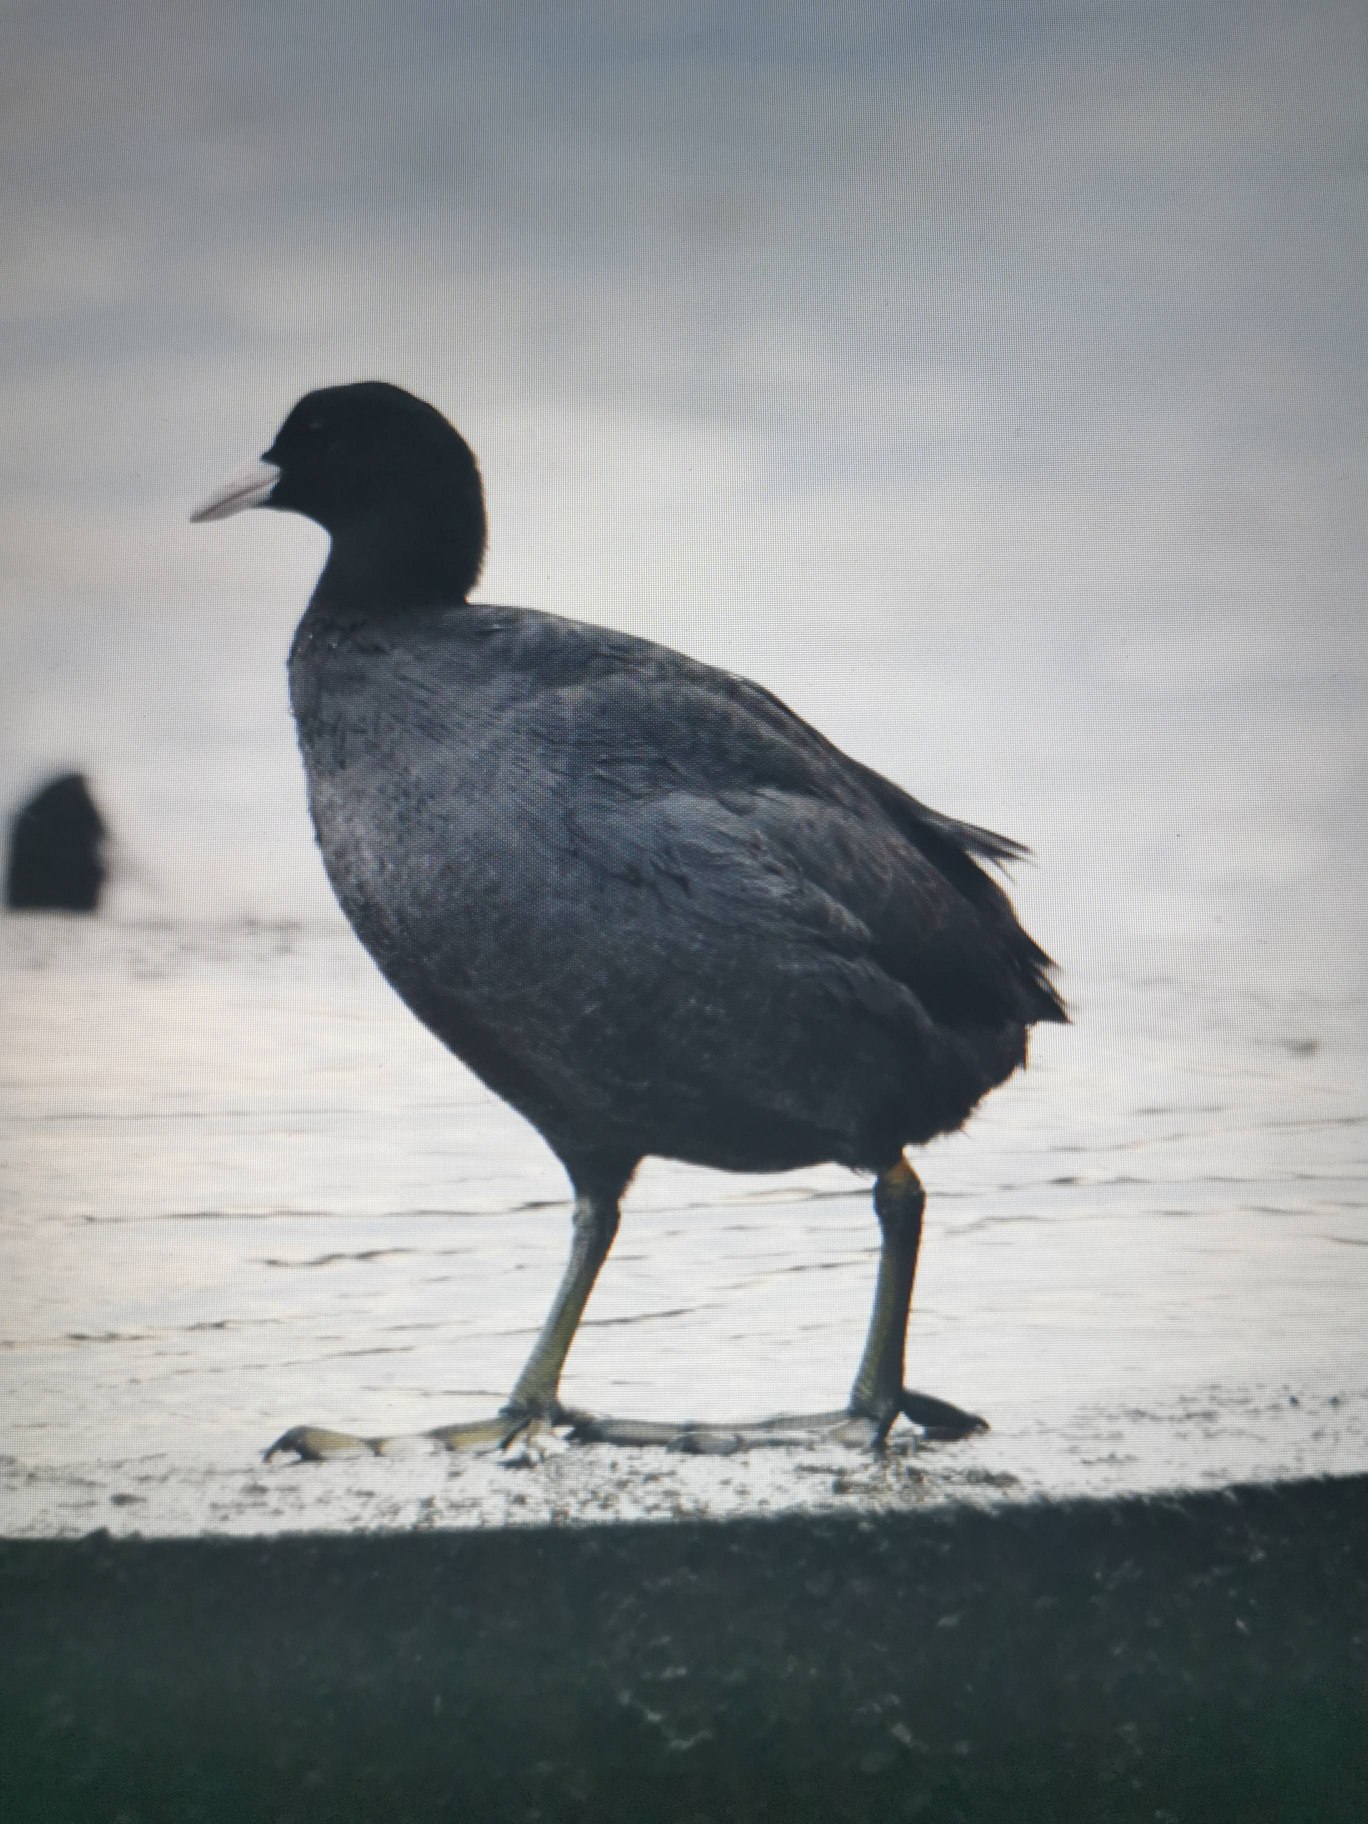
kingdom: Animalia
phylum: Chordata
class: Aves
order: Gruiformes
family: Rallidae
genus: Fulica
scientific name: Fulica atra
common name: Blishøne
